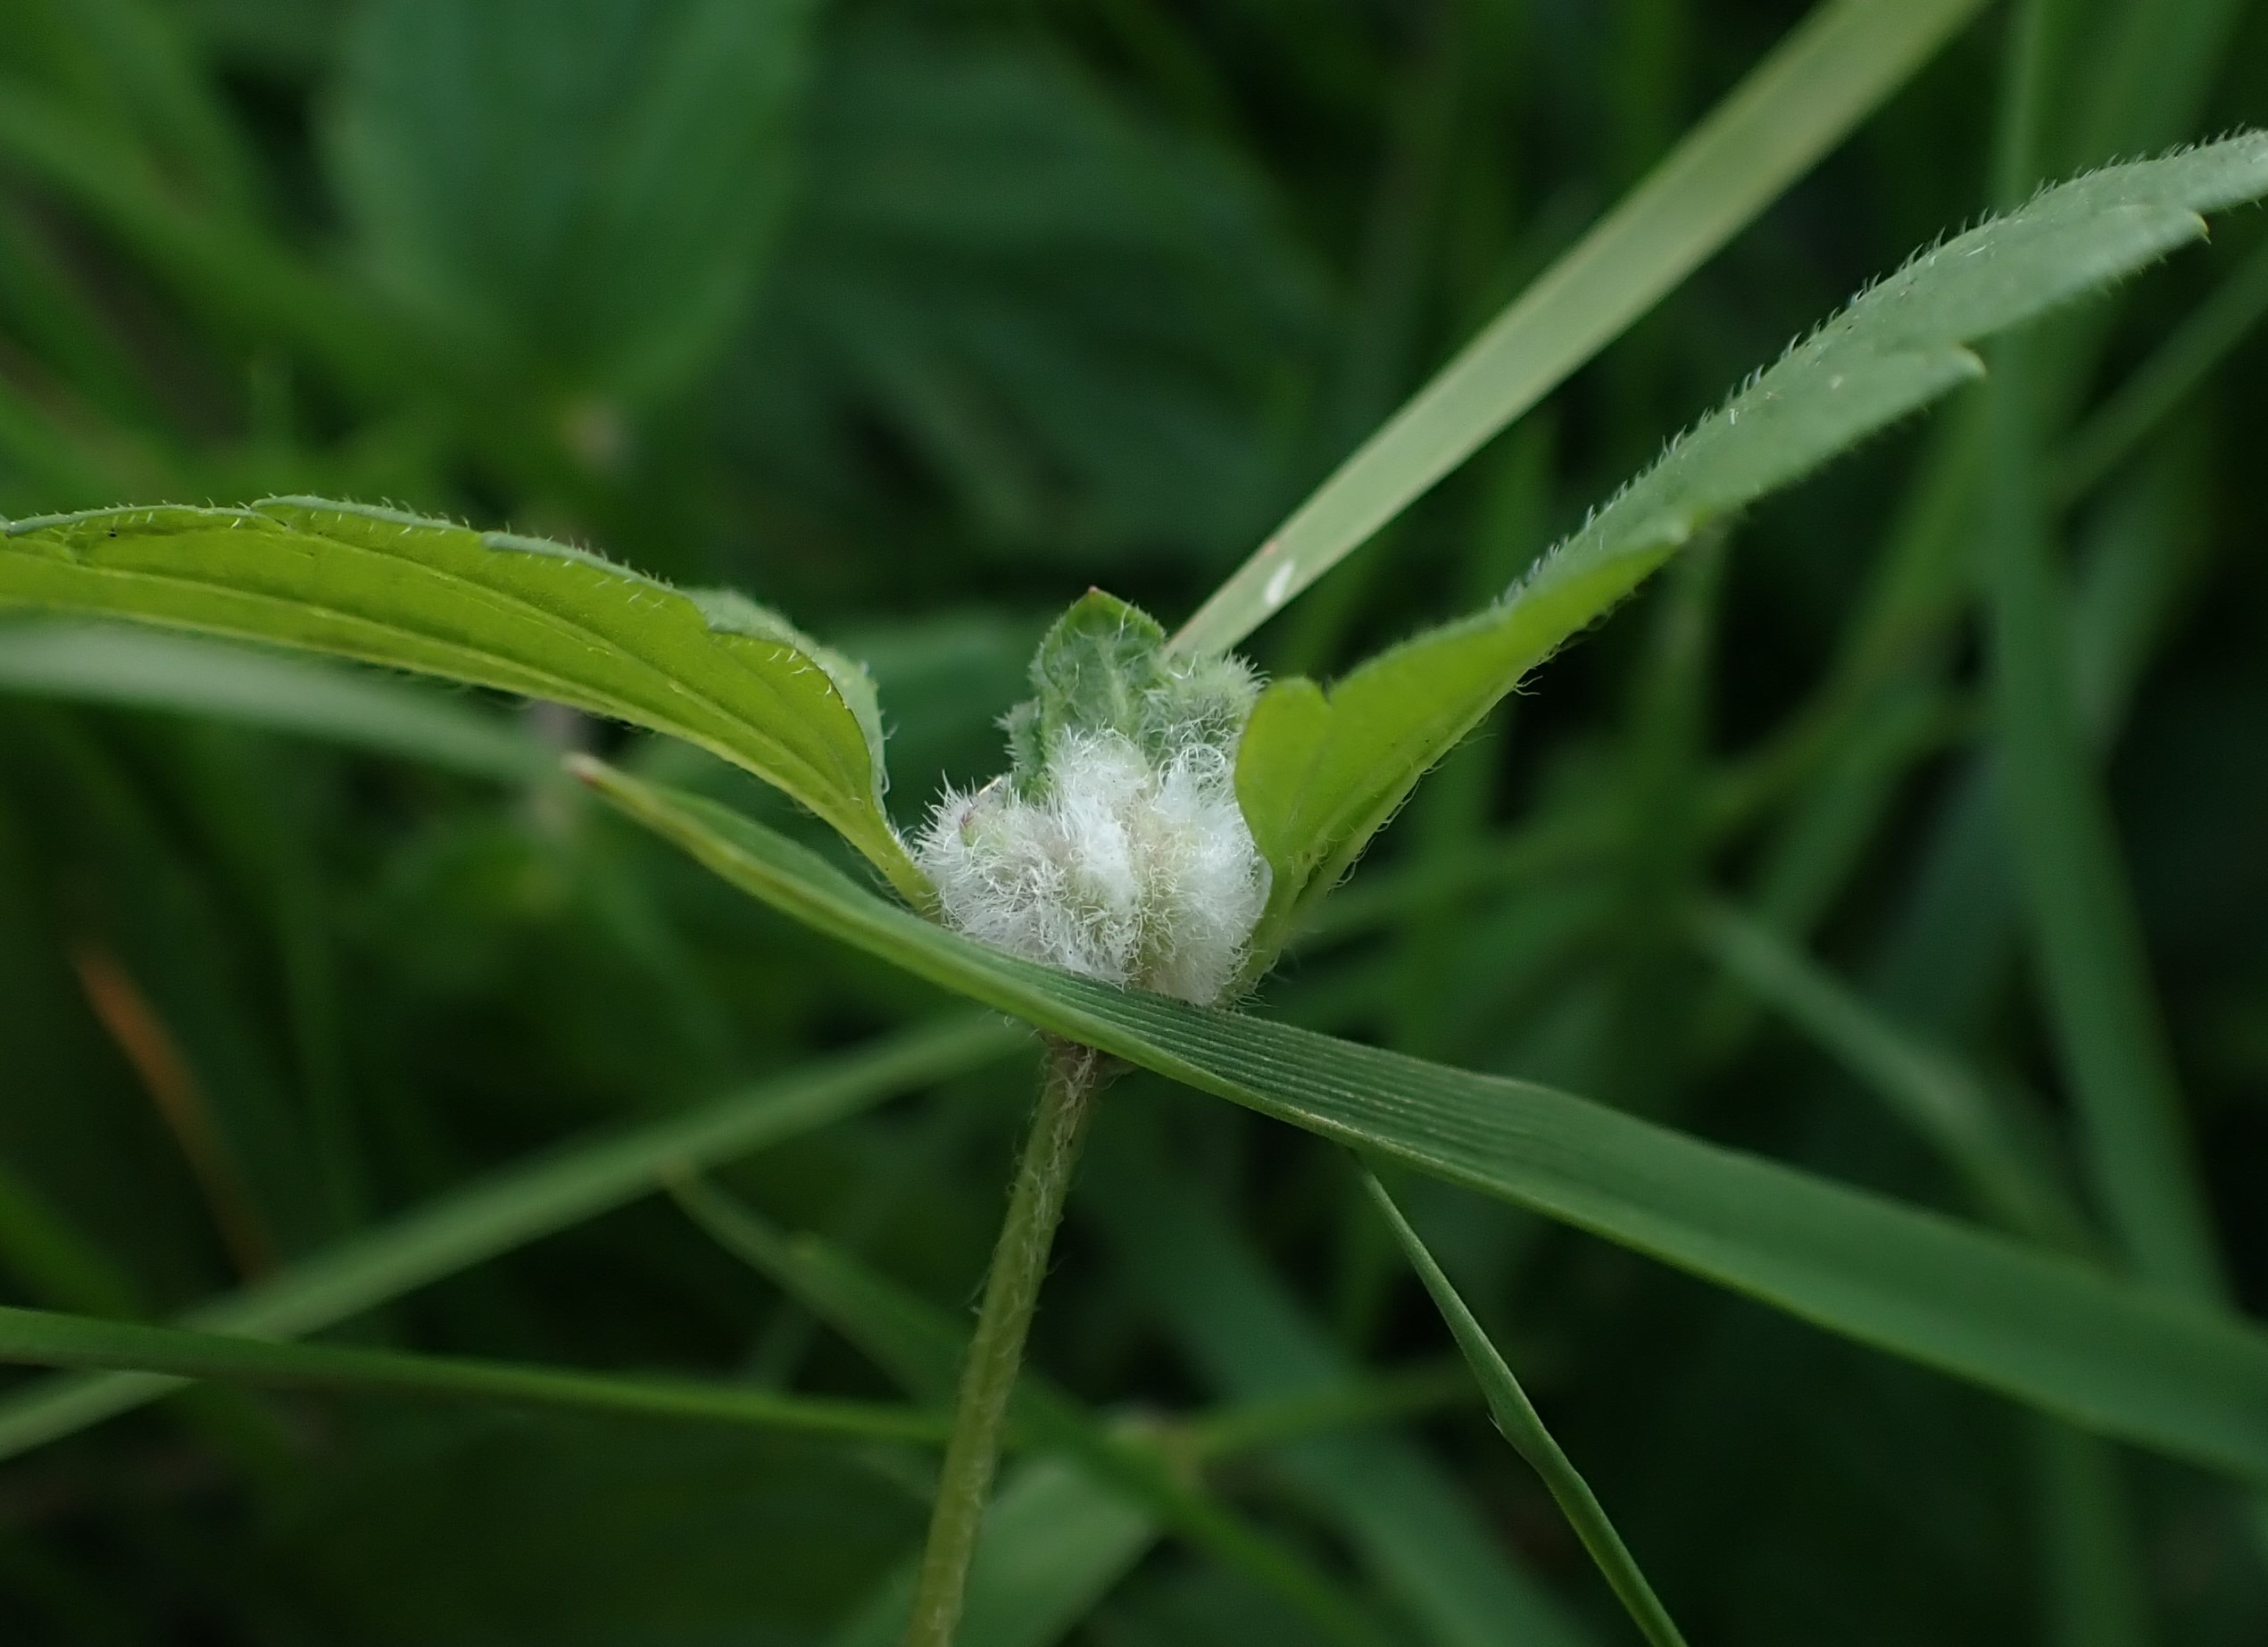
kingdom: Animalia
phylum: Arthropoda
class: Insecta
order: Diptera
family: Cecidomyiidae
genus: Jaapiella
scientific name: Jaapiella veronicae
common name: Ærenprisgalmyg
